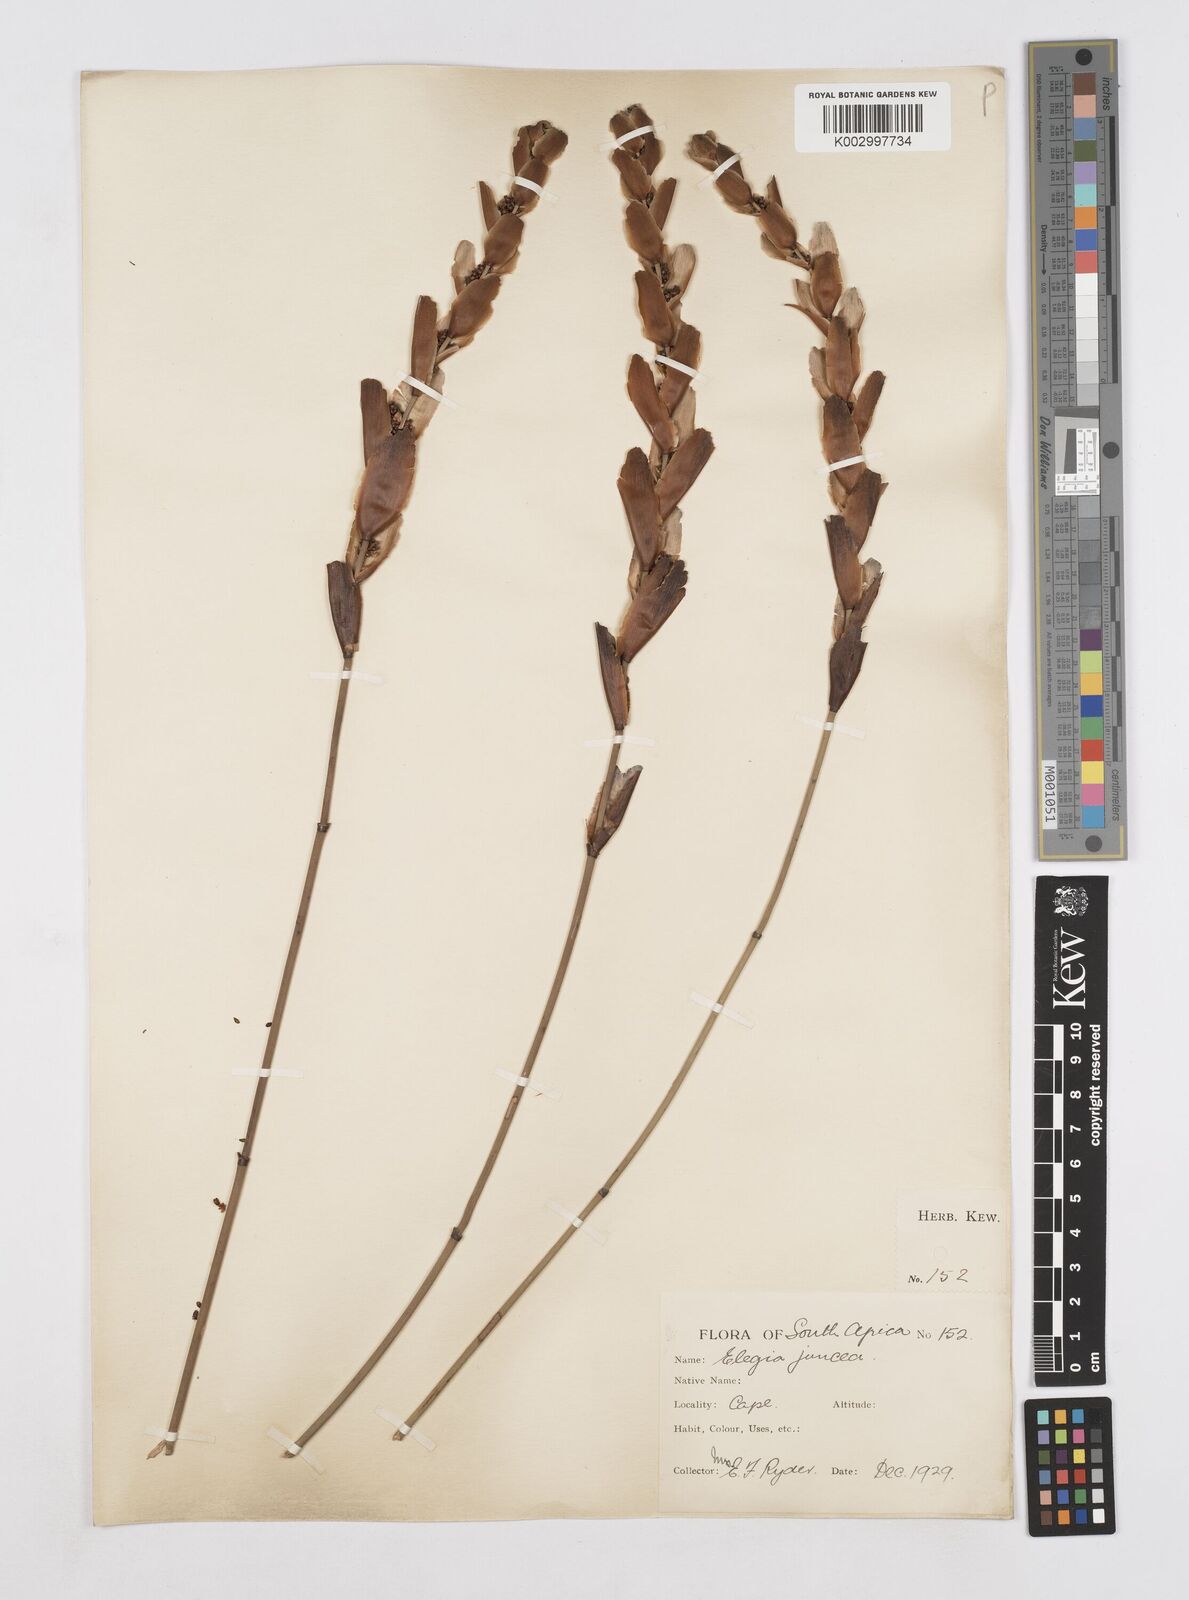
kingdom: Plantae
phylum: Tracheophyta
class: Liliopsida
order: Poales
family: Restionaceae
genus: Elegia
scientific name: Elegia juncea
